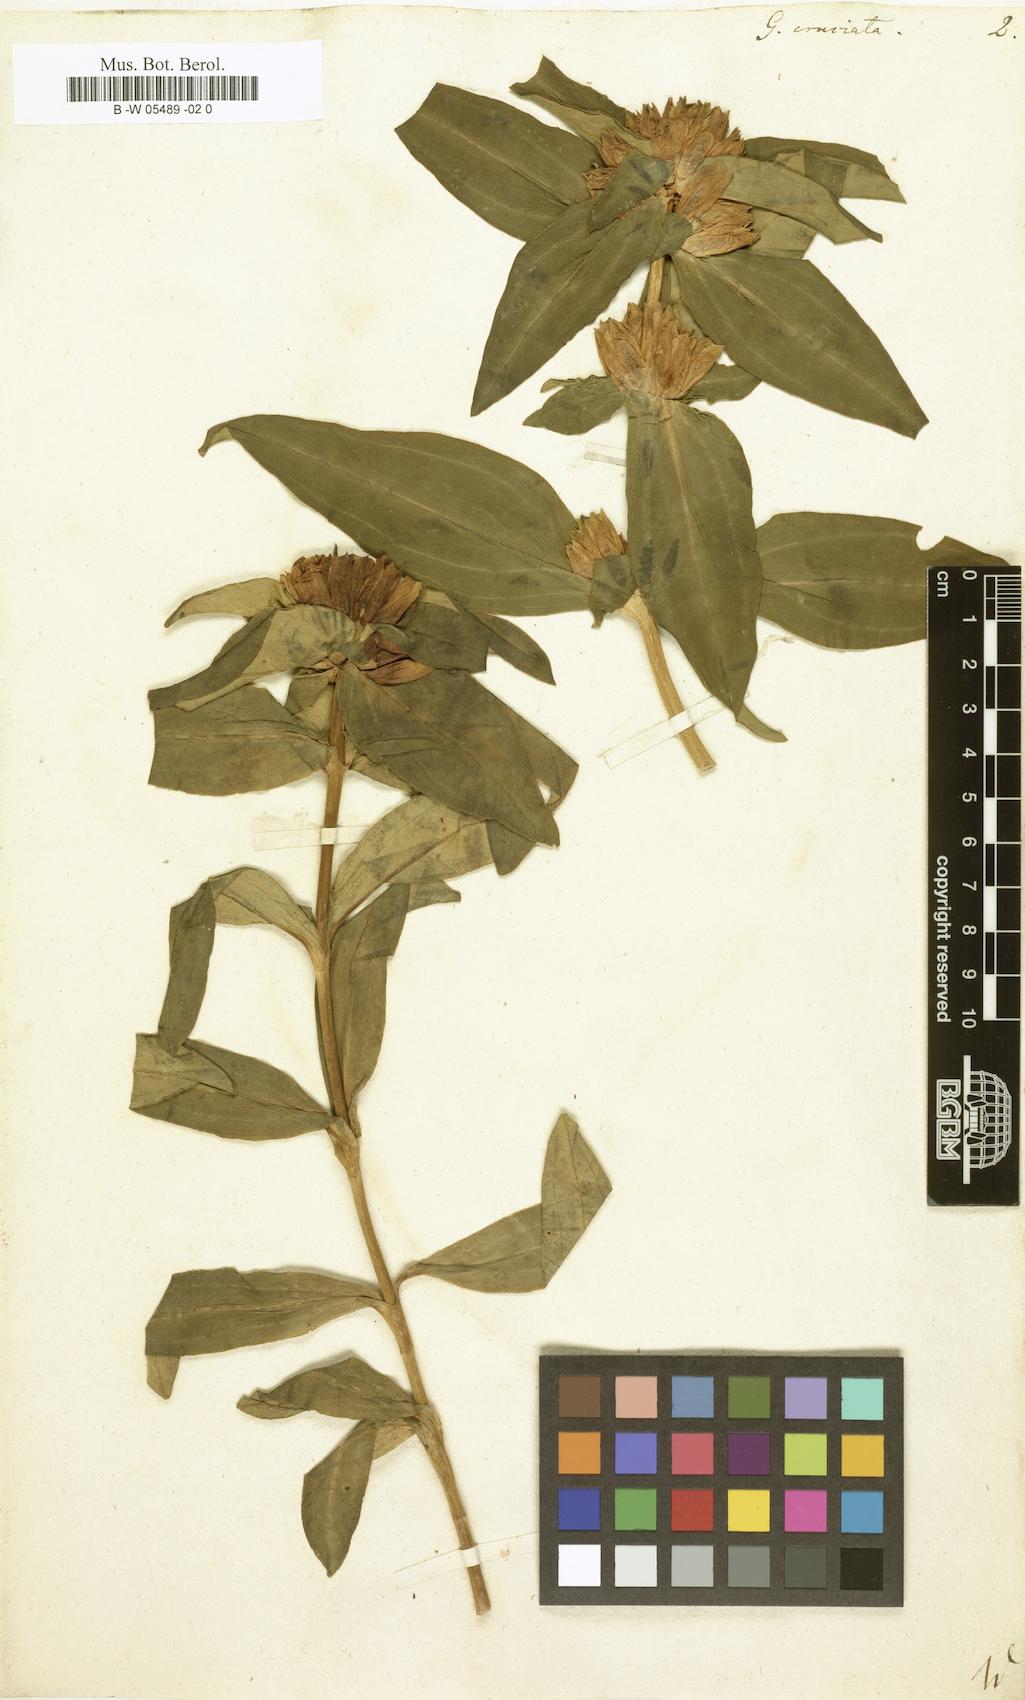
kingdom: Plantae
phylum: Tracheophyta
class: Magnoliopsida
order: Gentianales
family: Gentianaceae
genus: Gentiana
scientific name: Gentiana cruciata
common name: Cross gentian
